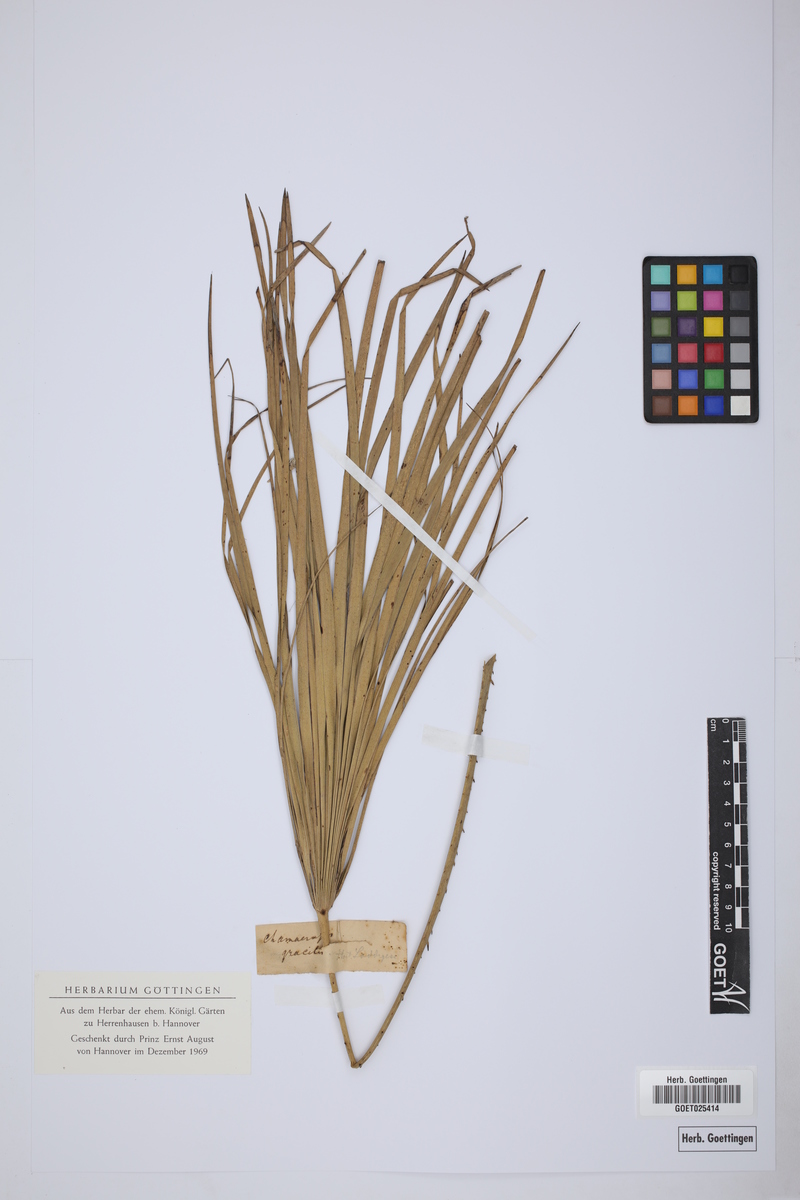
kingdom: Plantae
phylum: Tracheophyta
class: Liliopsida
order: Arecales
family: Arecaceae
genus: Chamaerops
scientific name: Chamaerops gracilis
